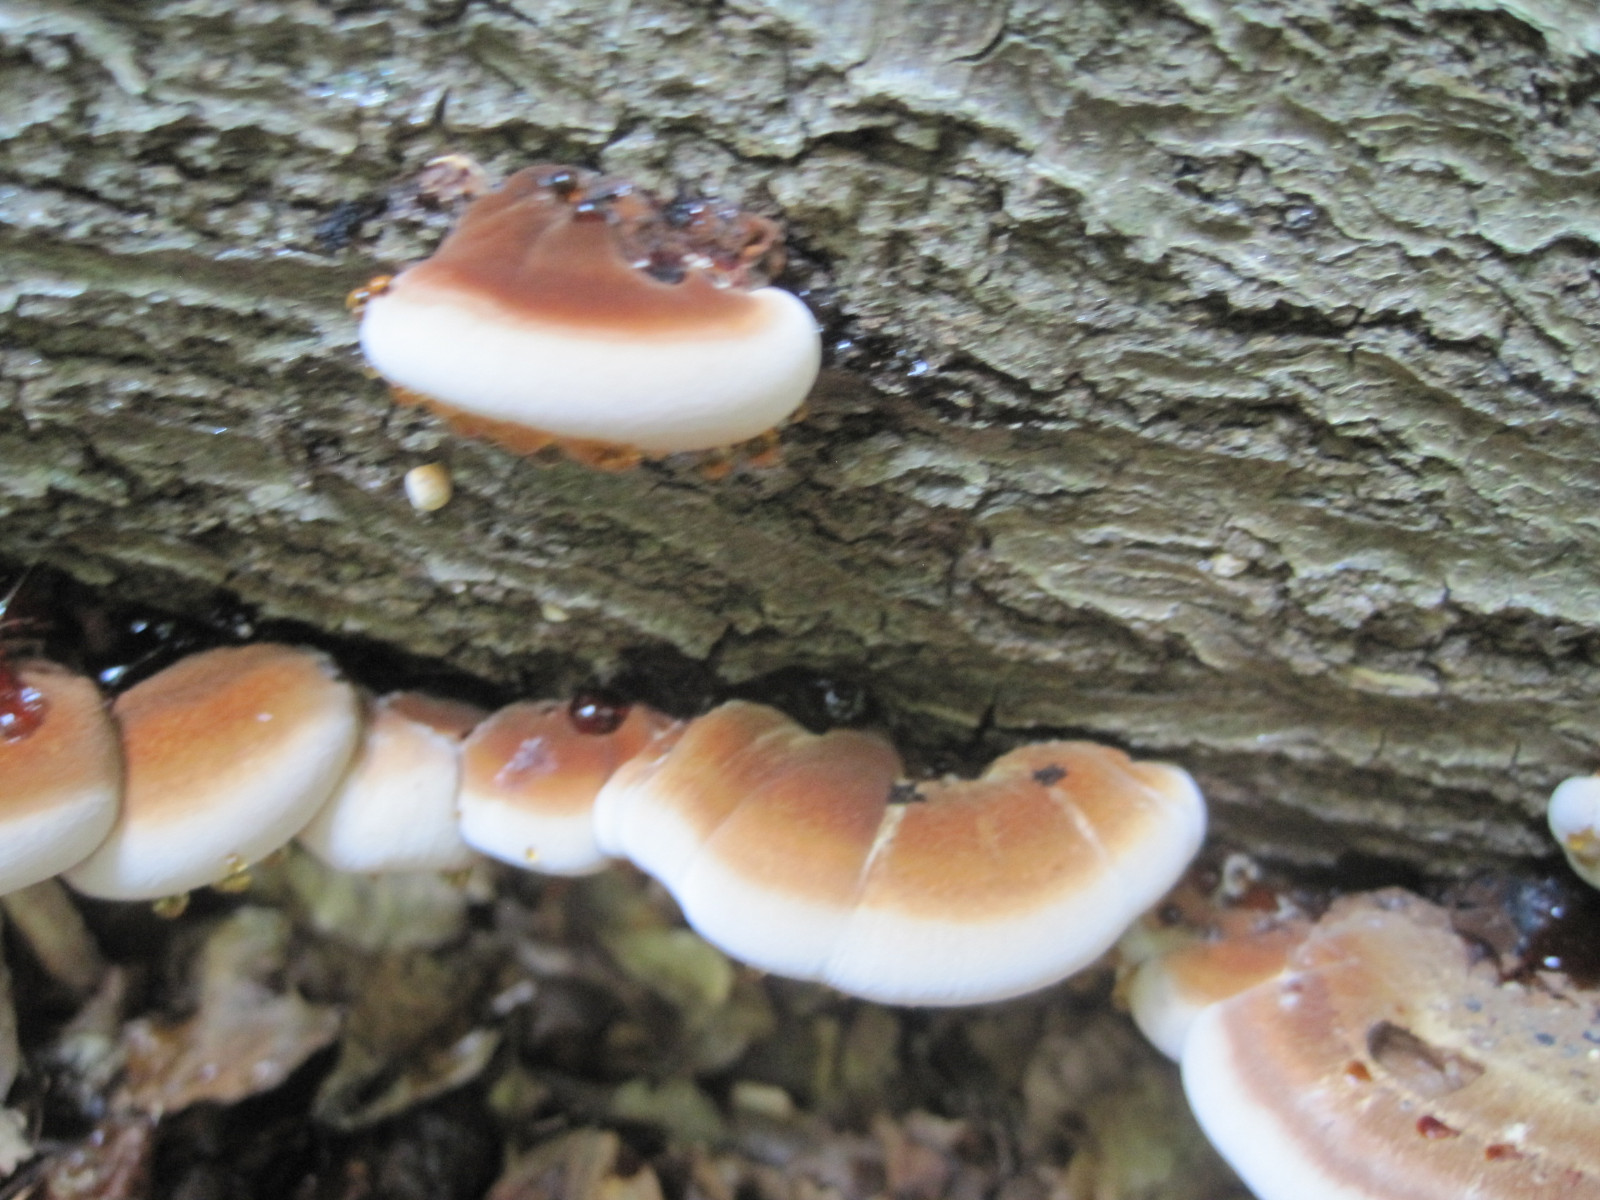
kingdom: Fungi
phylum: Basidiomycota
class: Agaricomycetes
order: Polyporales
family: Ischnodermataceae
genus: Ischnoderma
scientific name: Ischnoderma resinosum
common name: løv-tjæreporesvamp
